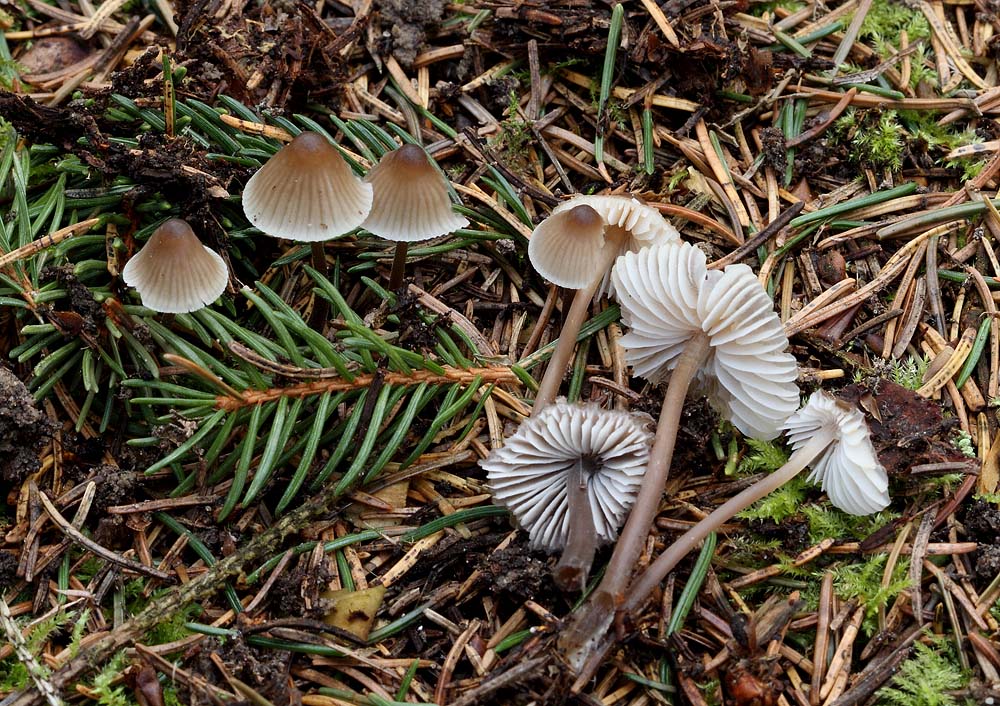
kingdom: Fungi
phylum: Basidiomycota
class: Agaricomycetes
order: Agaricales
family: Mycenaceae
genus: Mycena
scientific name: Mycena abramsii
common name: sommer-huesvamp
